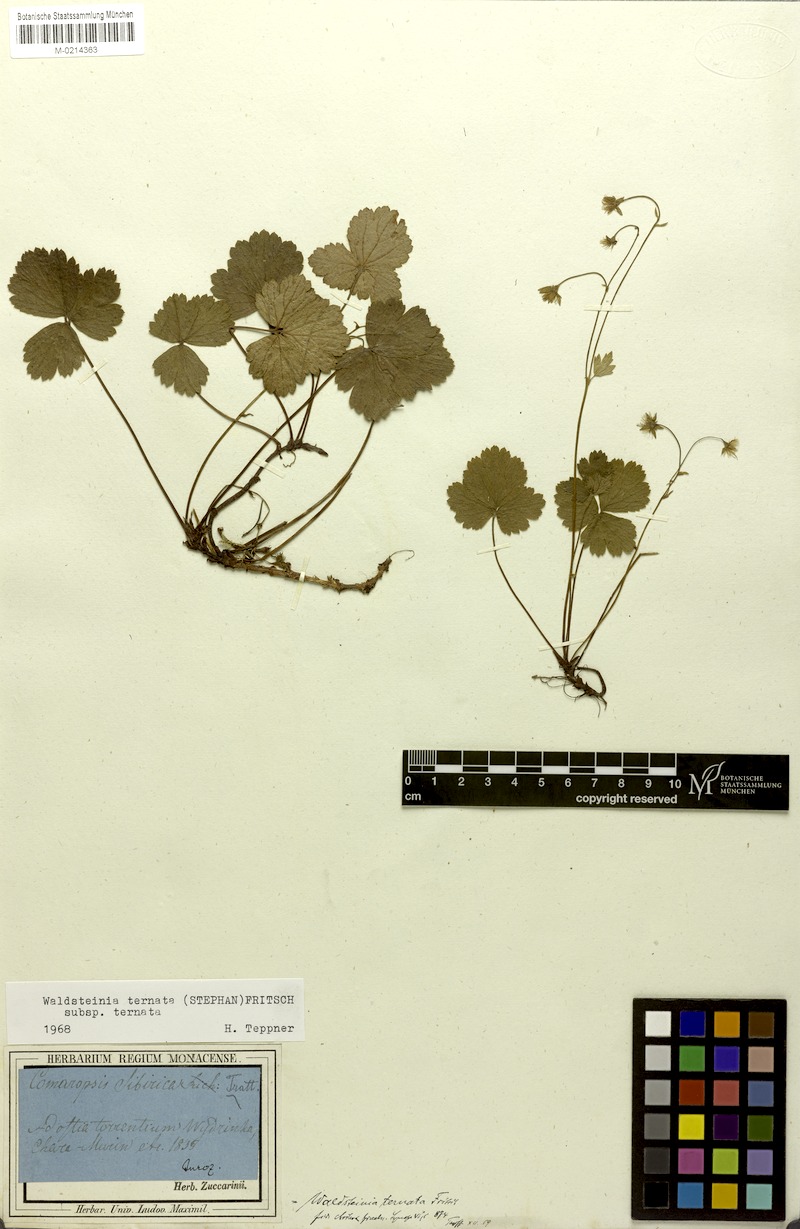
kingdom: Plantae
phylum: Tracheophyta
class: Magnoliopsida
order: Rosales
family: Rosaceae
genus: Geum
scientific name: Geum ternatum
